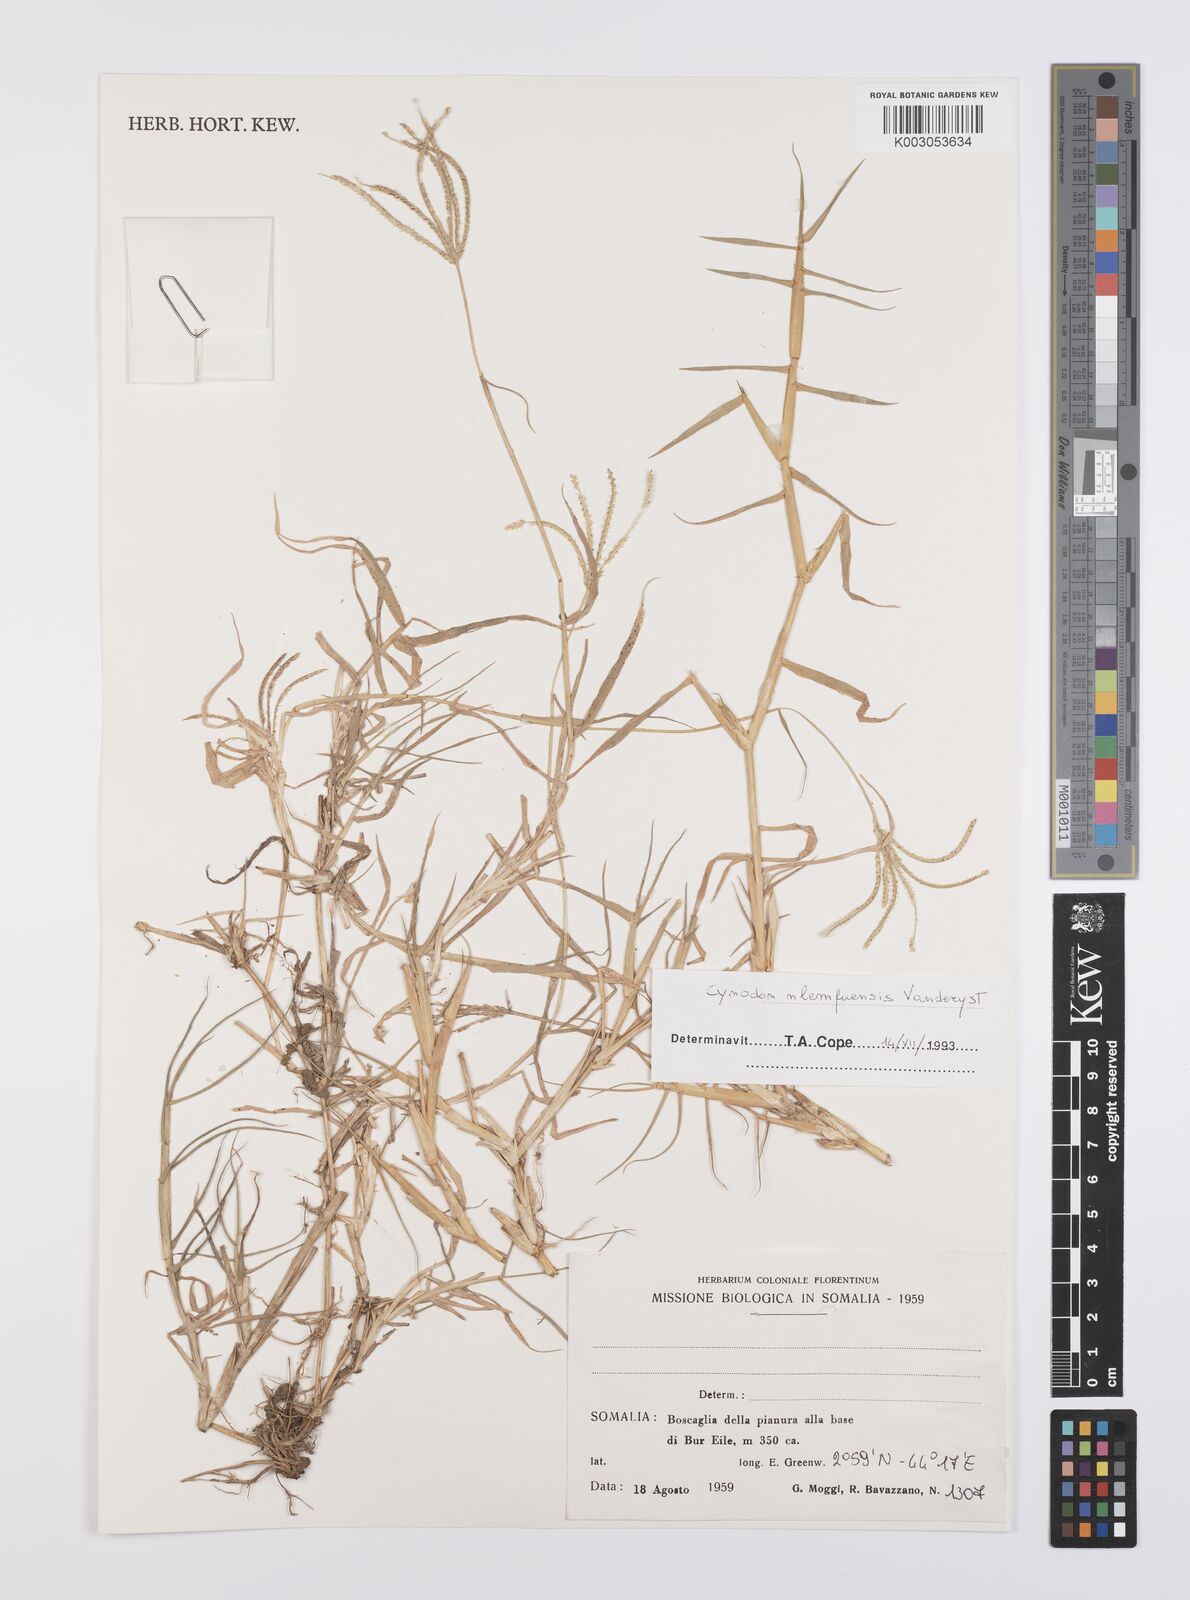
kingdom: Plantae
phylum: Tracheophyta
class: Liliopsida
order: Poales
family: Poaceae
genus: Cynodon
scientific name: Cynodon nlemfuensis
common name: African bermudagrass
